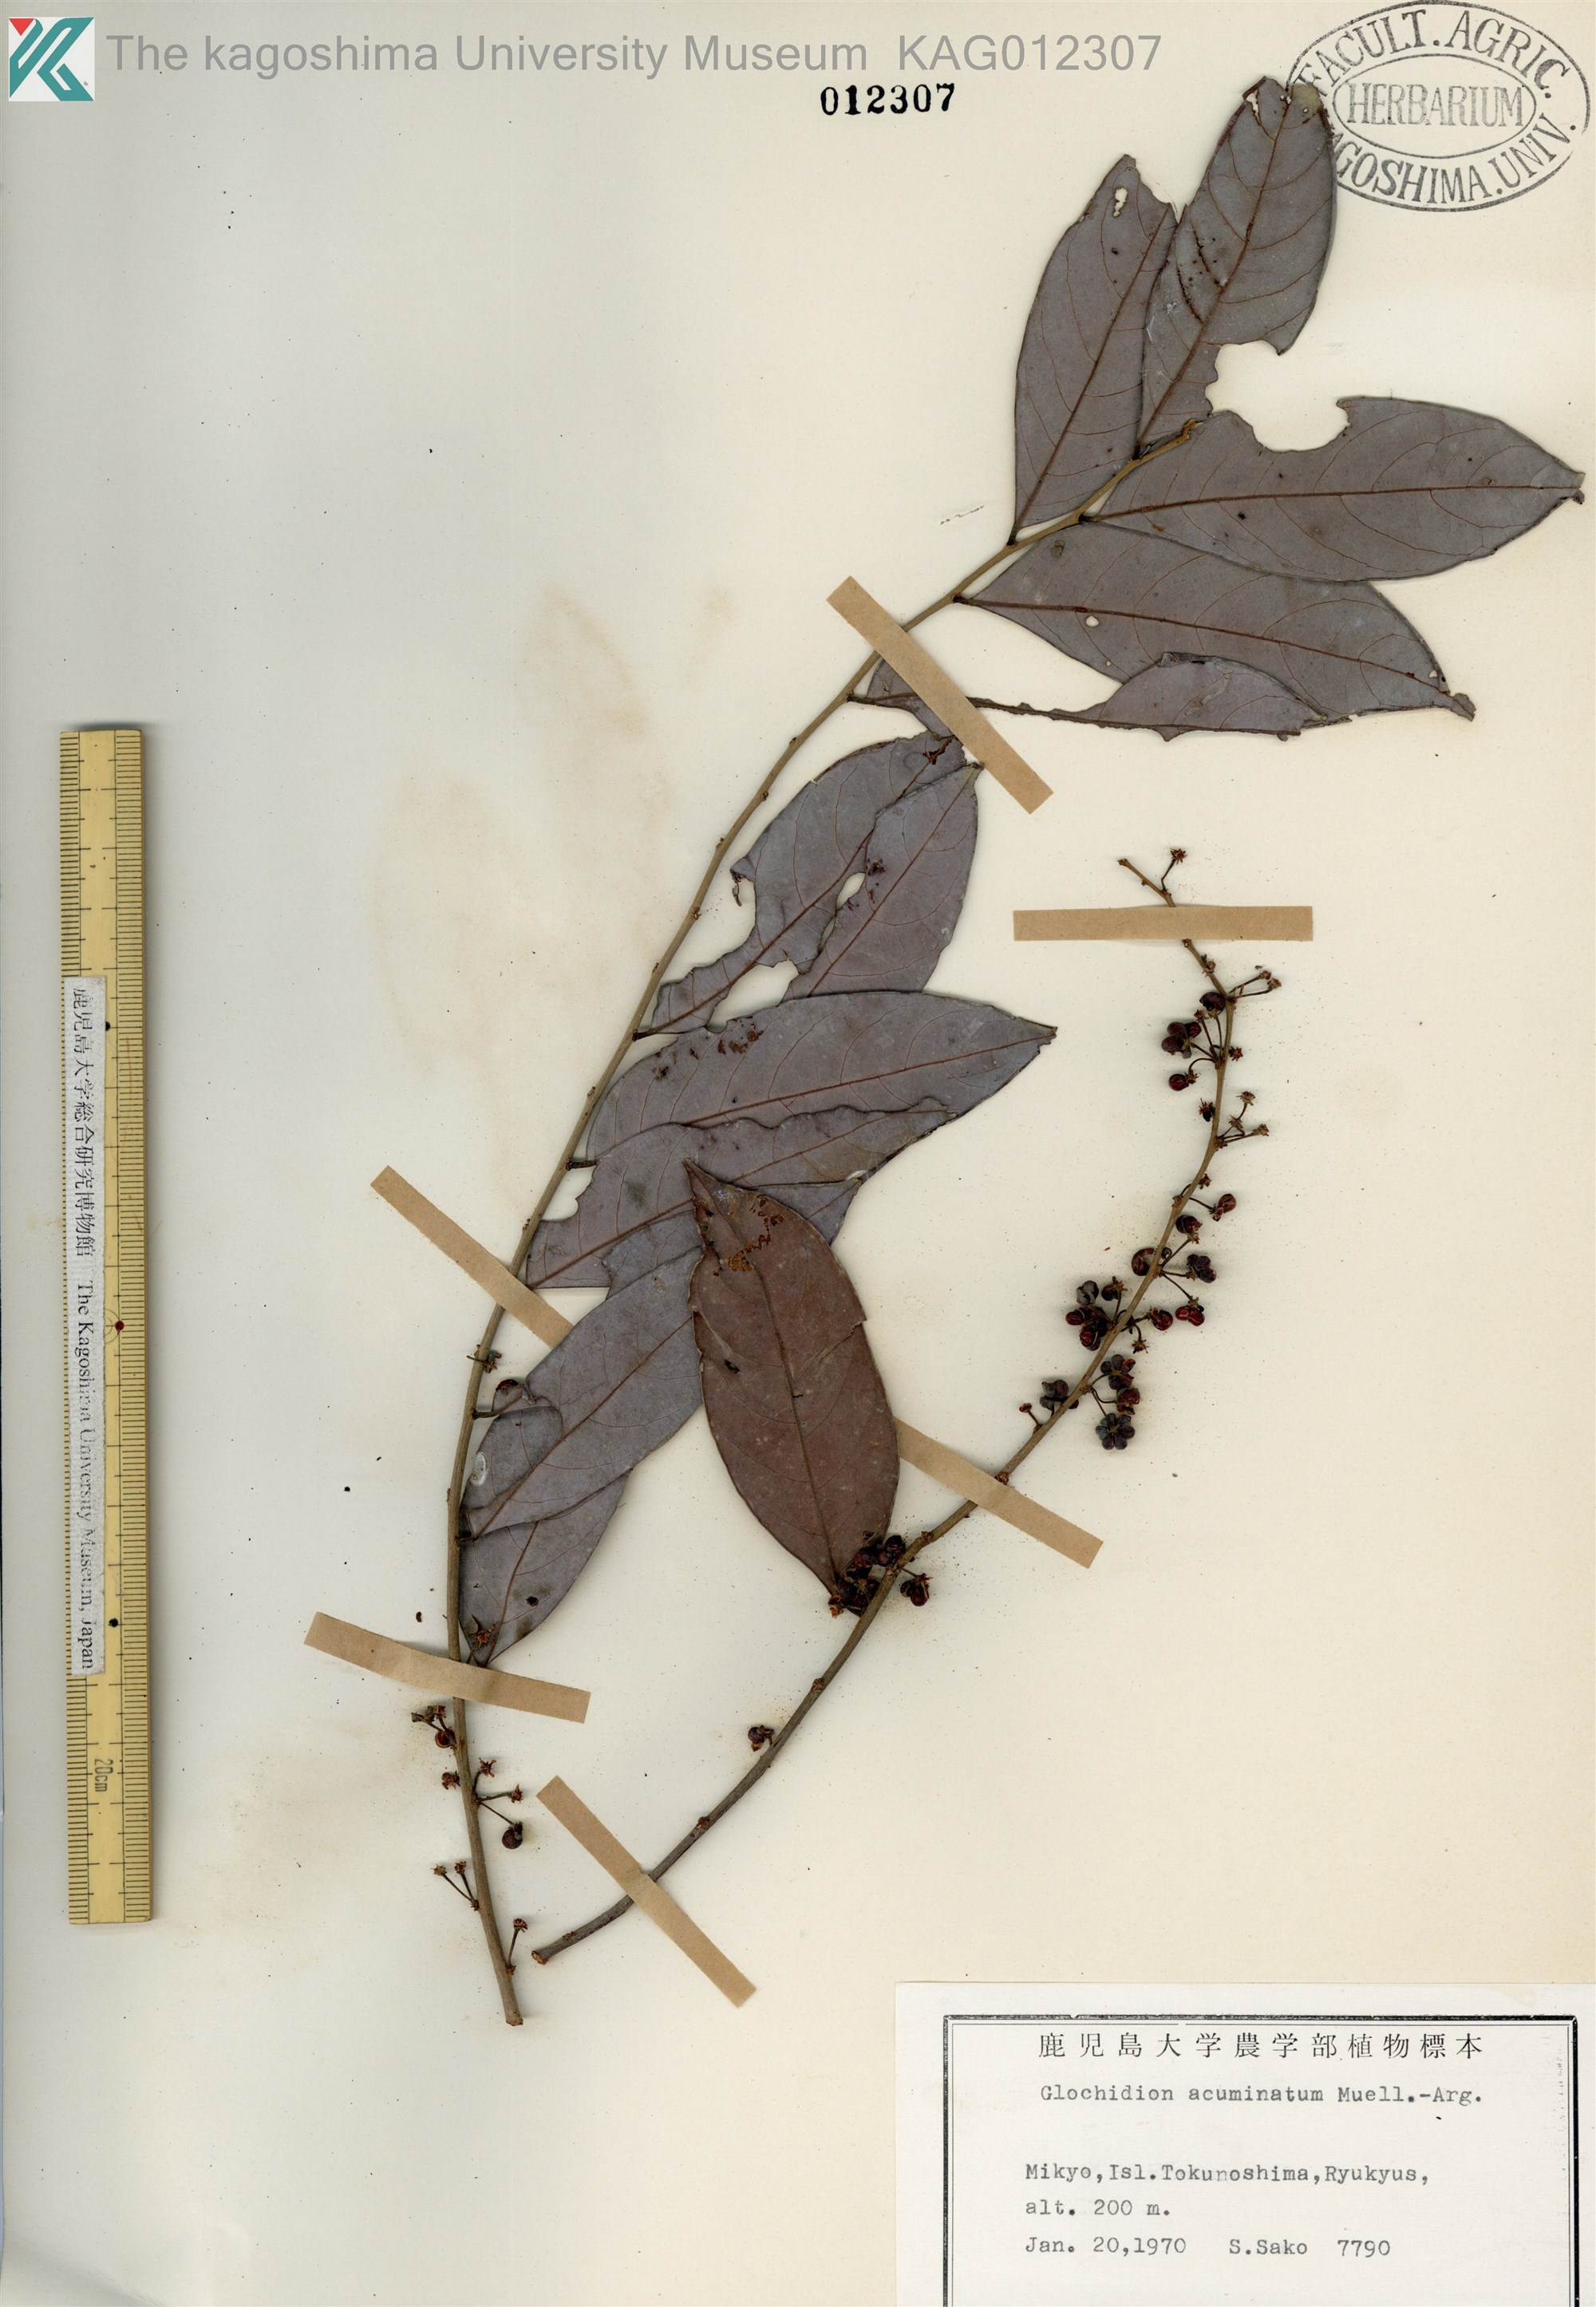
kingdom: Plantae
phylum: Tracheophyta
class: Magnoliopsida
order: Malpighiales
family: Phyllanthaceae
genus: Glochidion
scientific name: Glochidion triandrum
